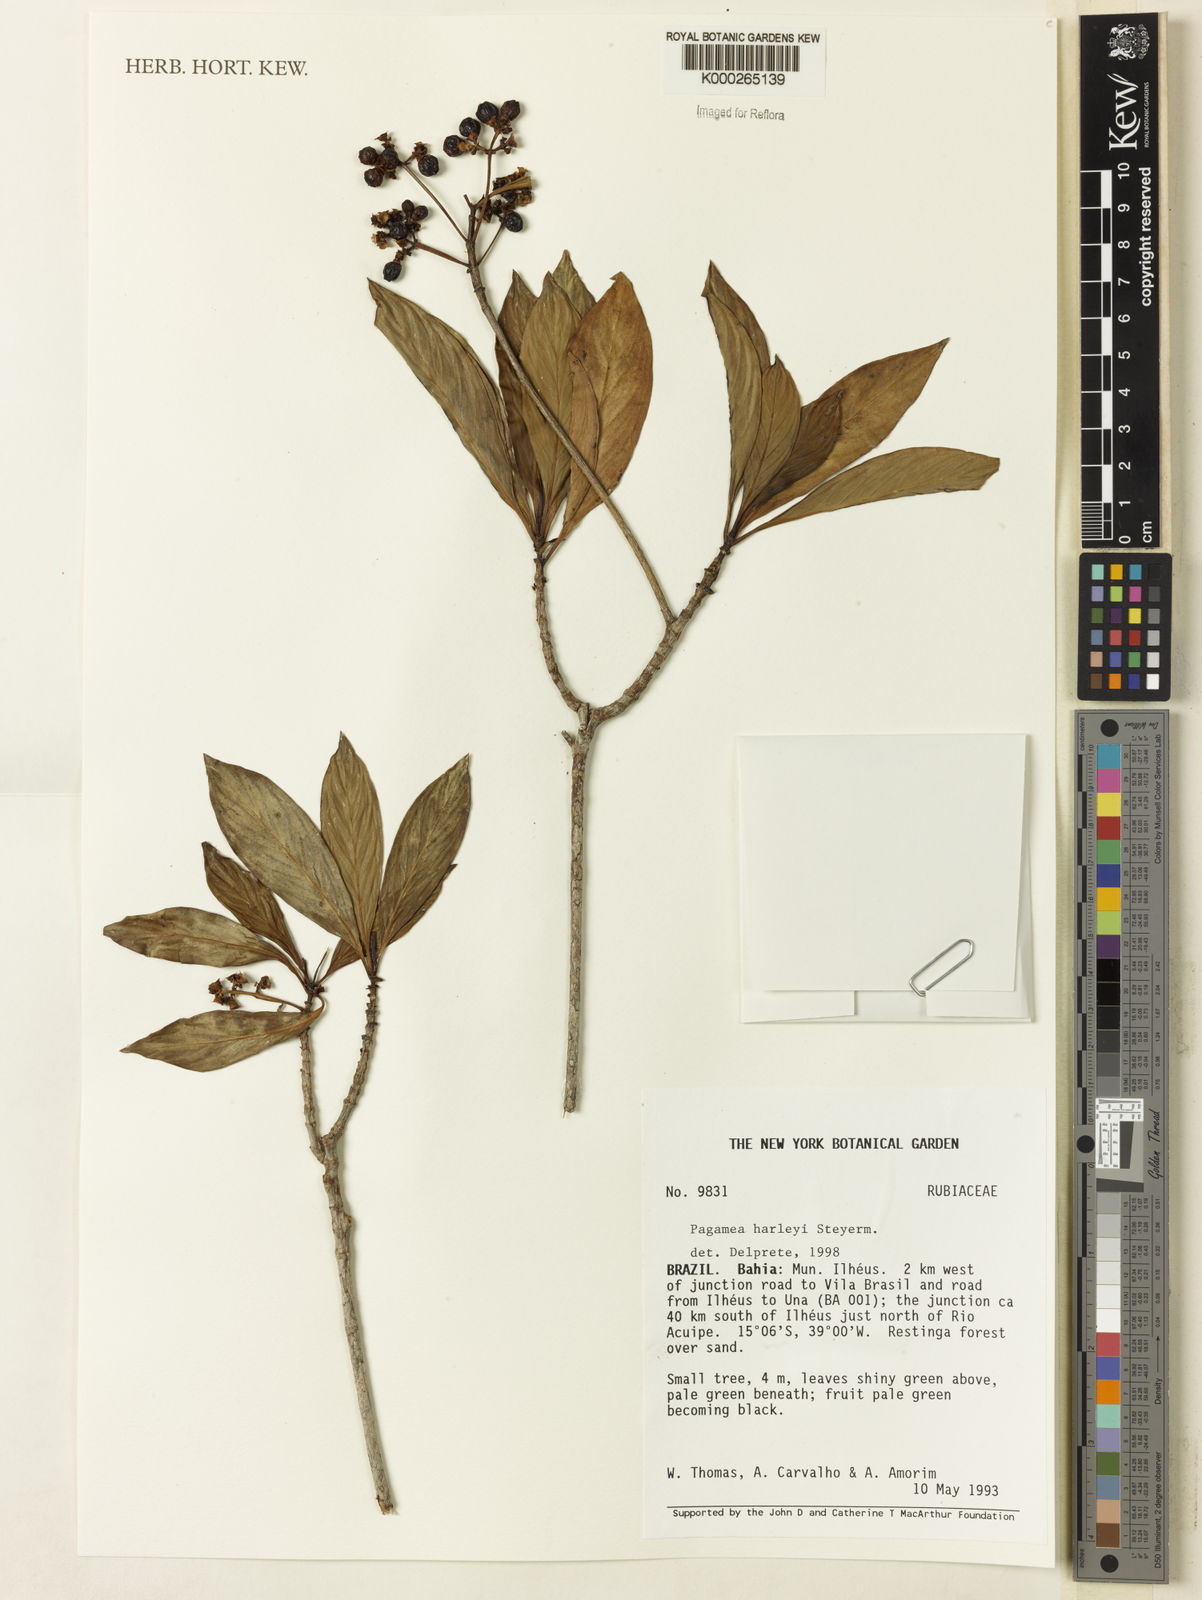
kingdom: Plantae
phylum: Tracheophyta
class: Magnoliopsida
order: Gentianales
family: Rubiaceae
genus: Pagamea
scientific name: Pagamea harleyi
